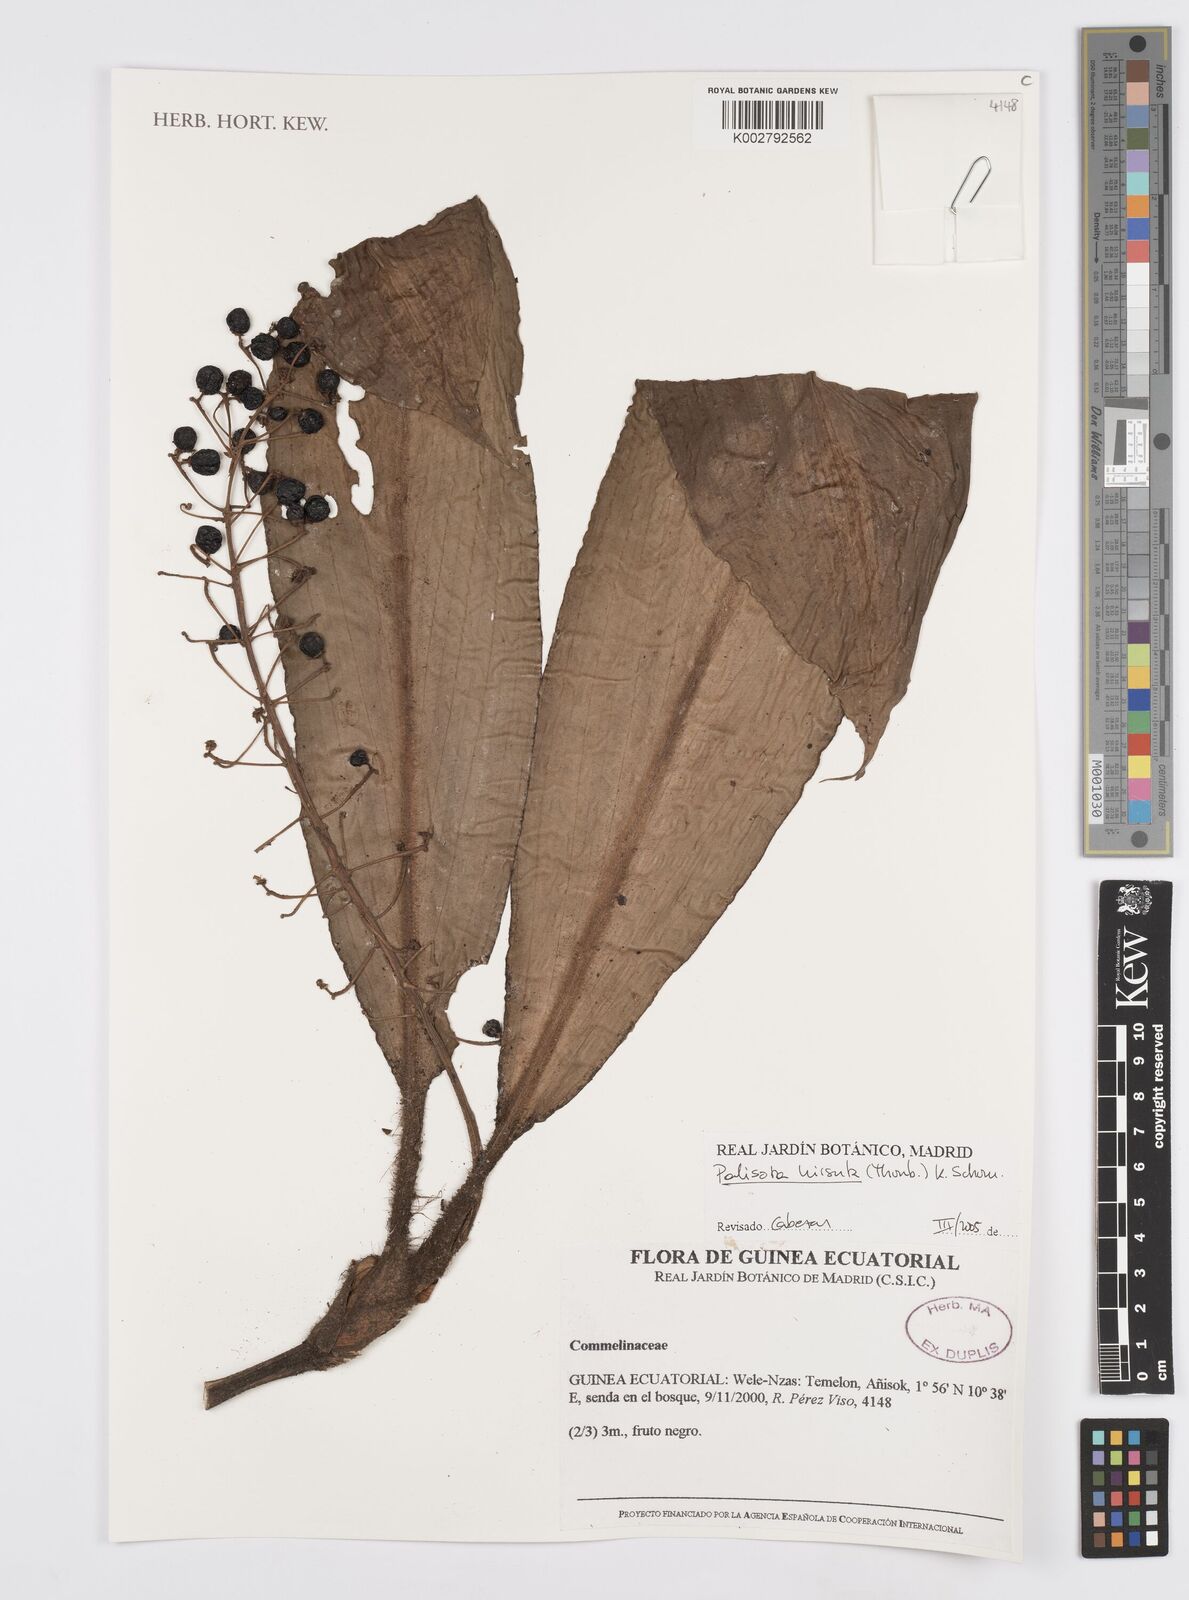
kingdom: Plantae
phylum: Tracheophyta
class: Liliopsida
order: Commelinales
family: Commelinaceae
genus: Palisota
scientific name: Palisota hirsuta
